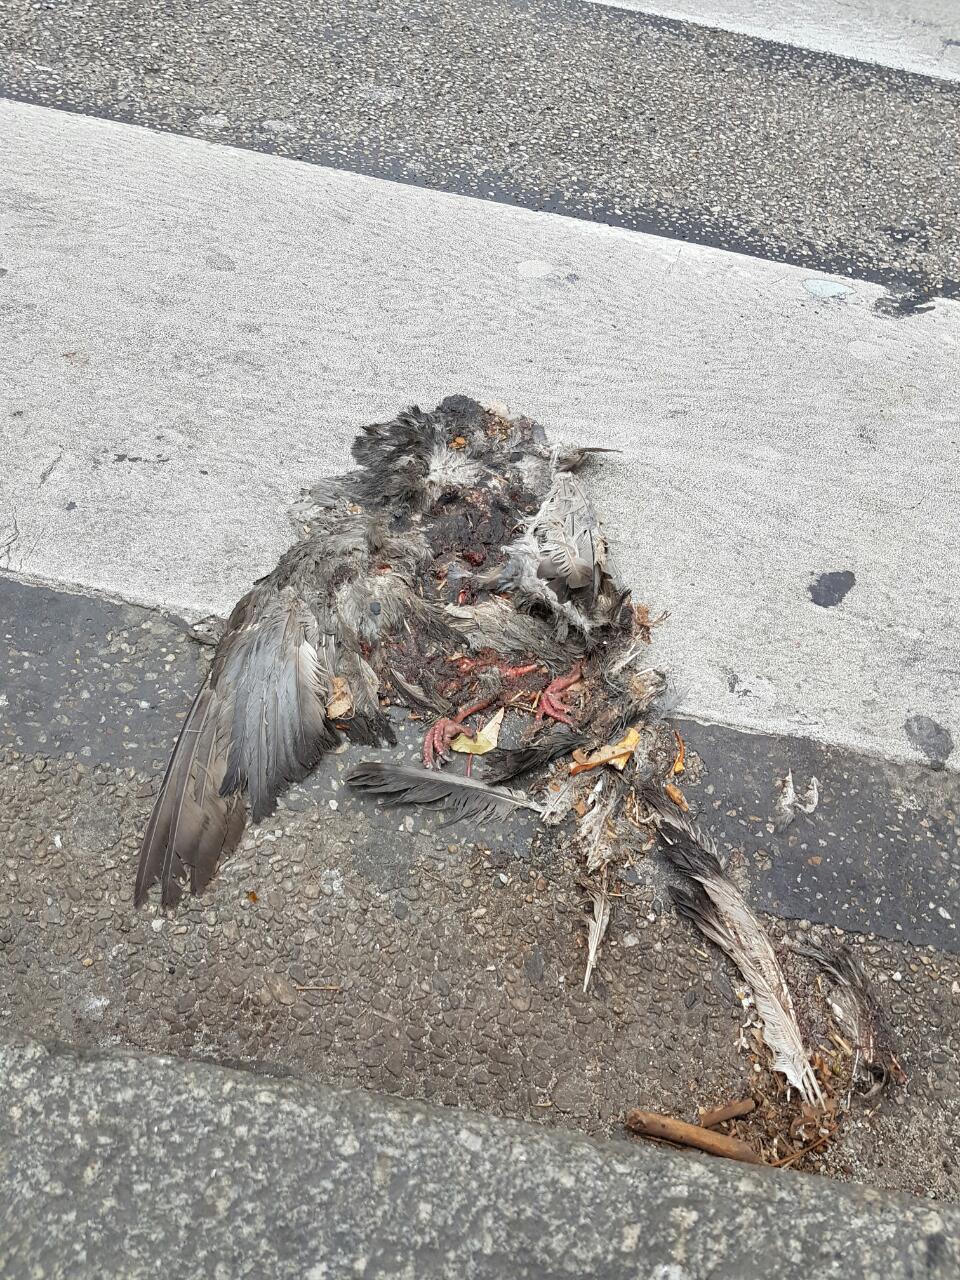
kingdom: Animalia
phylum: Chordata
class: Aves
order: Columbiformes
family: Columbidae
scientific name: Columbidae
